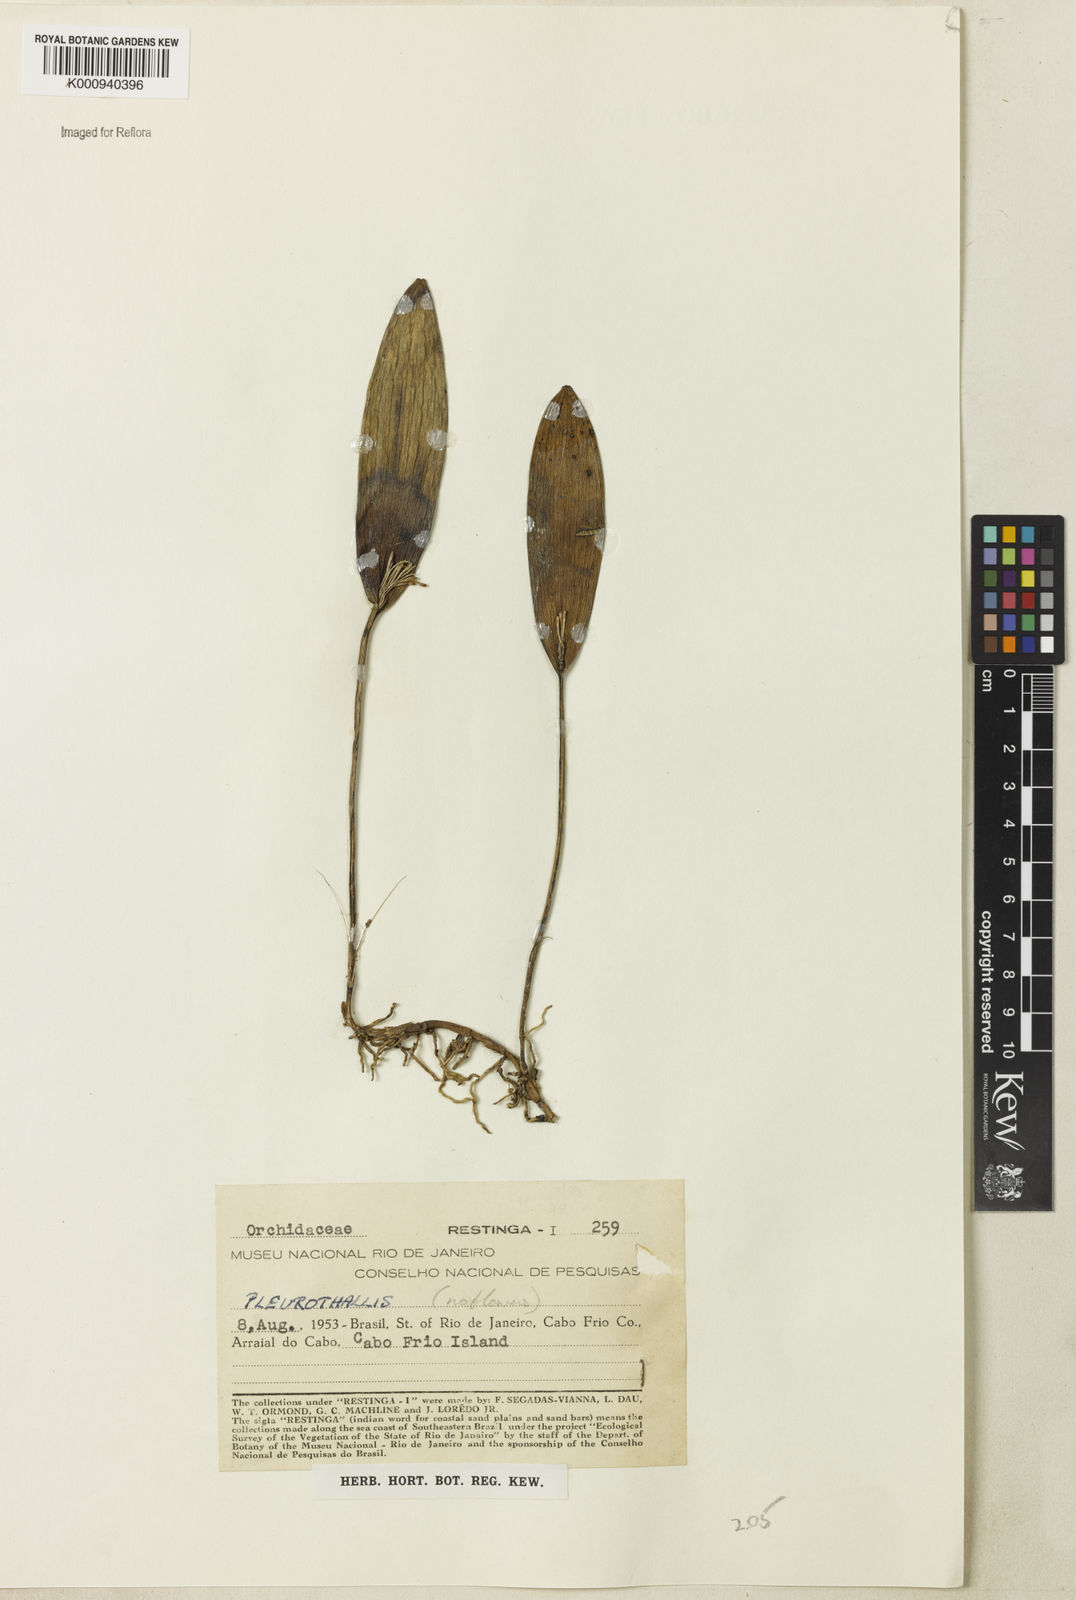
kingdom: Plantae
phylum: Tracheophyta
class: Liliopsida
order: Asparagales
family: Orchidaceae
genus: Pleurothallis
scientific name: Pleurothallis
